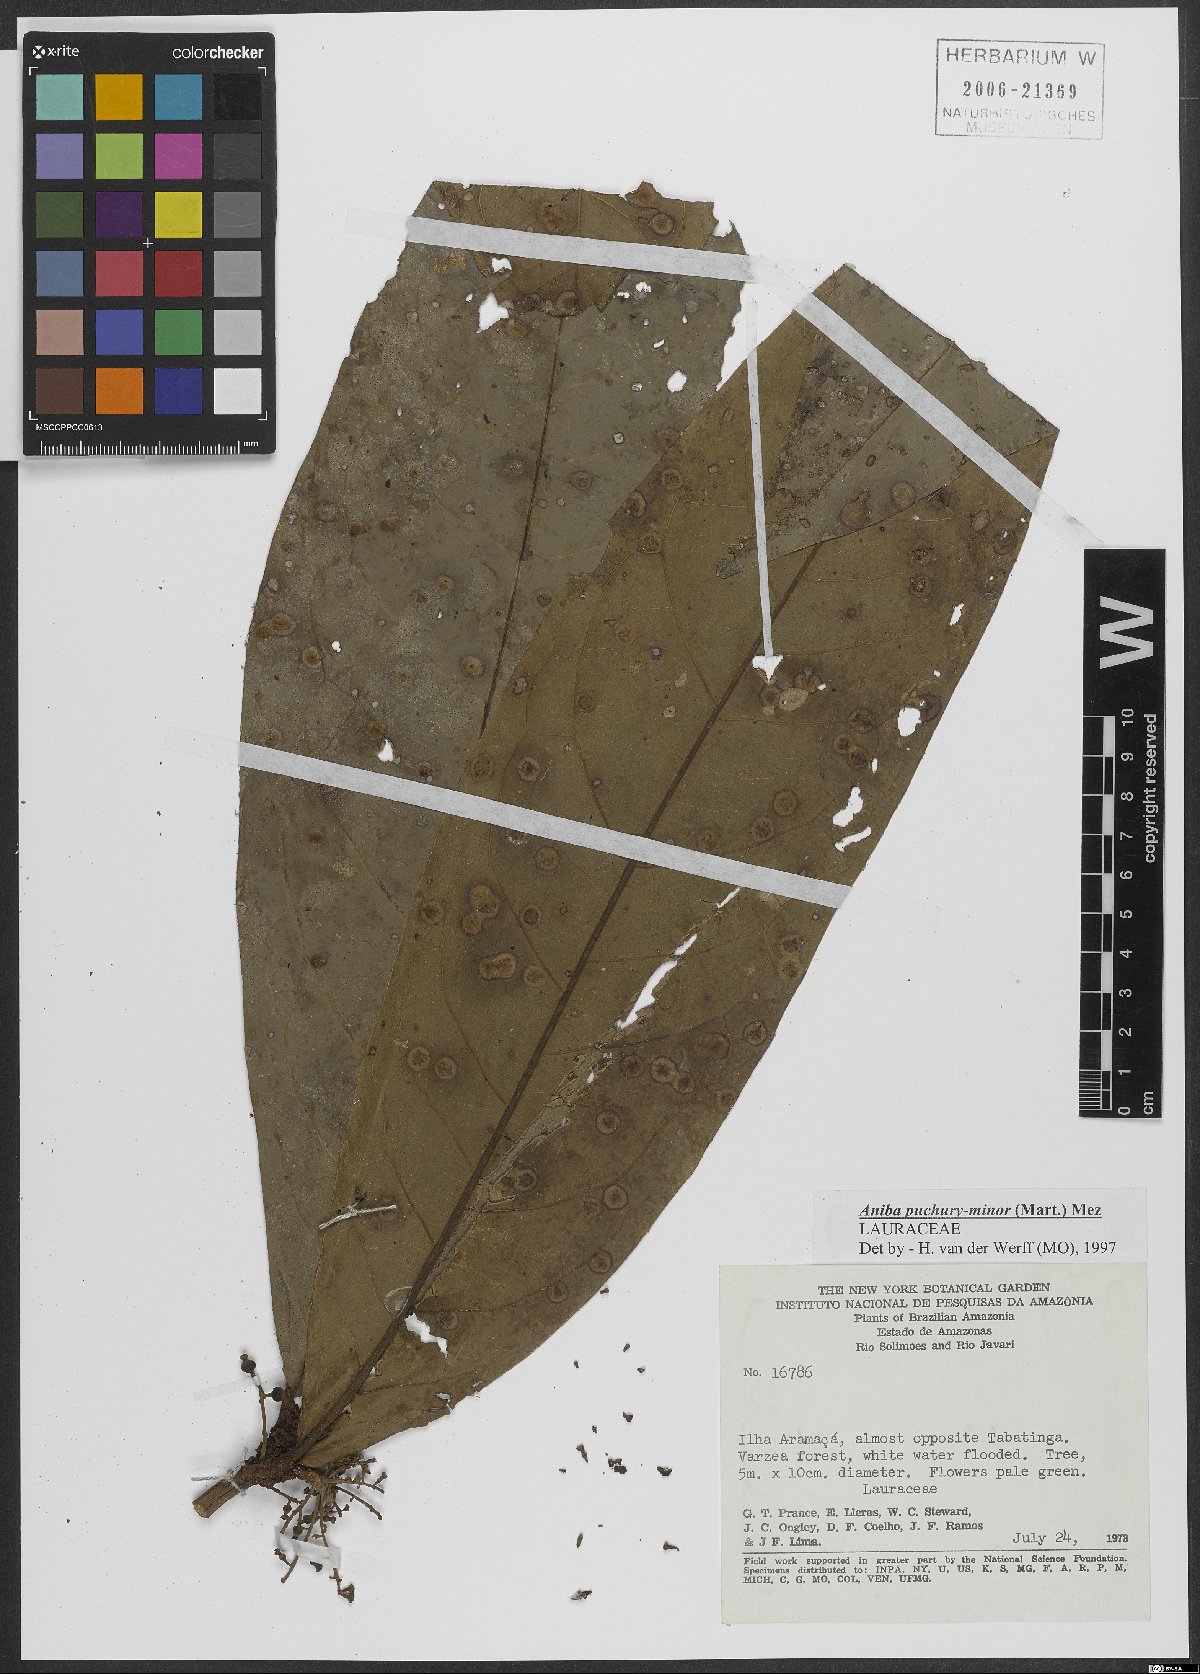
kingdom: Plantae
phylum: Tracheophyta
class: Magnoliopsida
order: Laurales
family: Lauraceae
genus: Aniba
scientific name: Aniba puchury-minor
